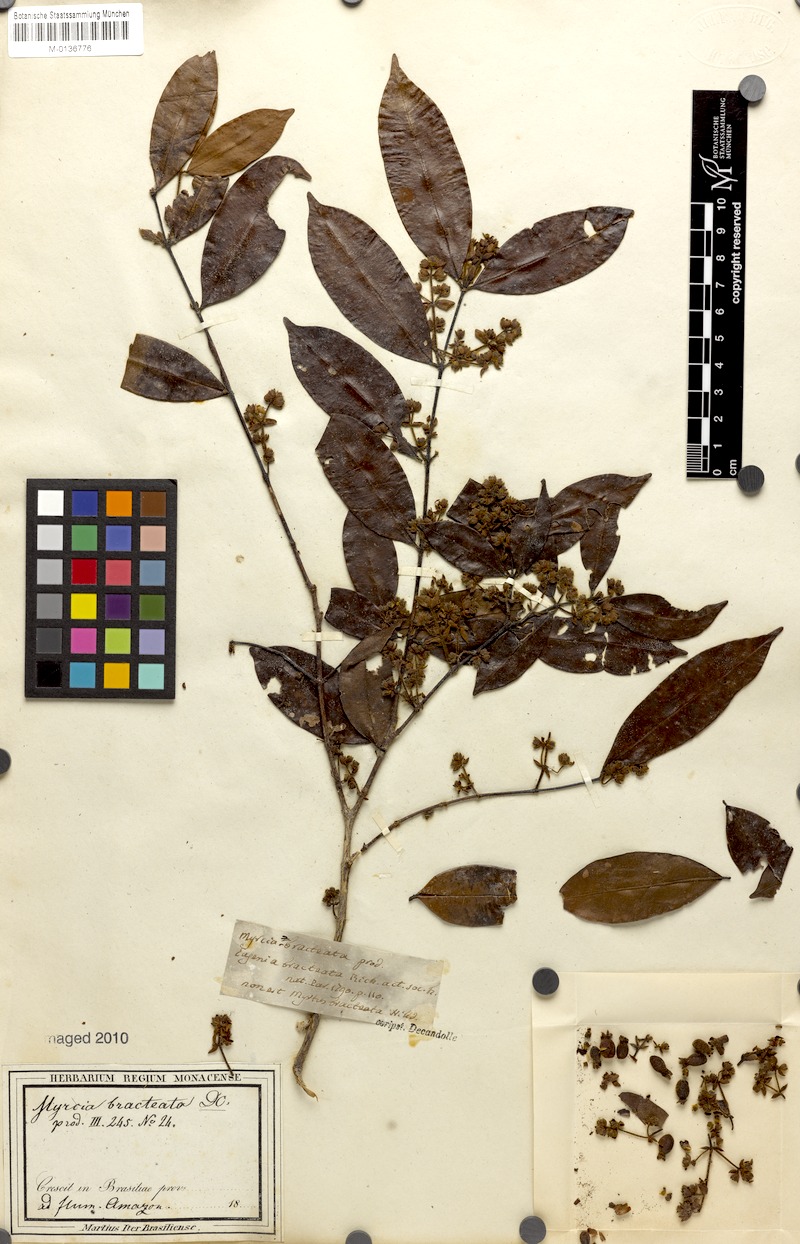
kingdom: Plantae
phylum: Tracheophyta
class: Magnoliopsida
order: Myrtales
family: Myrtaceae
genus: Myrcia
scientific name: Myrcia bracteata
